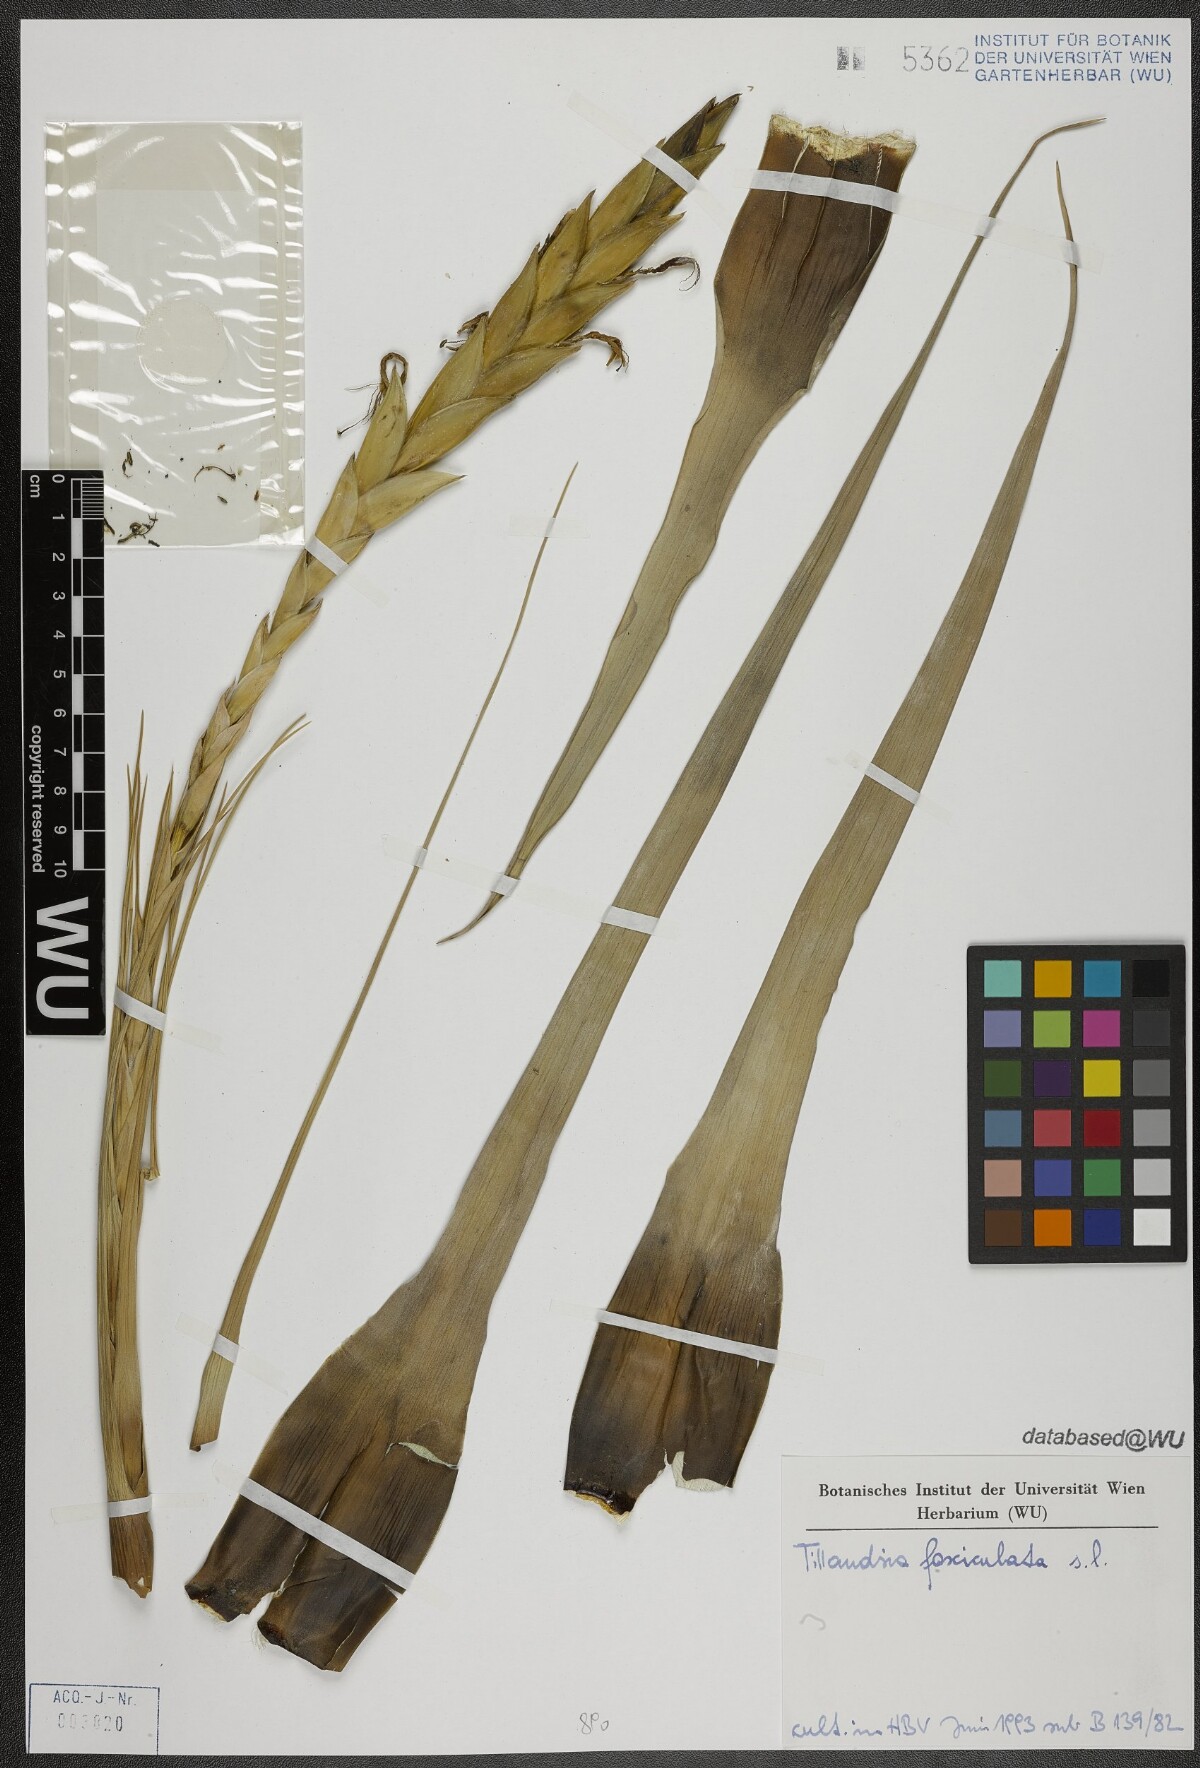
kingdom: Plantae
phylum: Tracheophyta
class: Liliopsida
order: Poales
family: Bromeliaceae
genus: Tillandsia
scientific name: Tillandsia fasciculata
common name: Giant airplant
